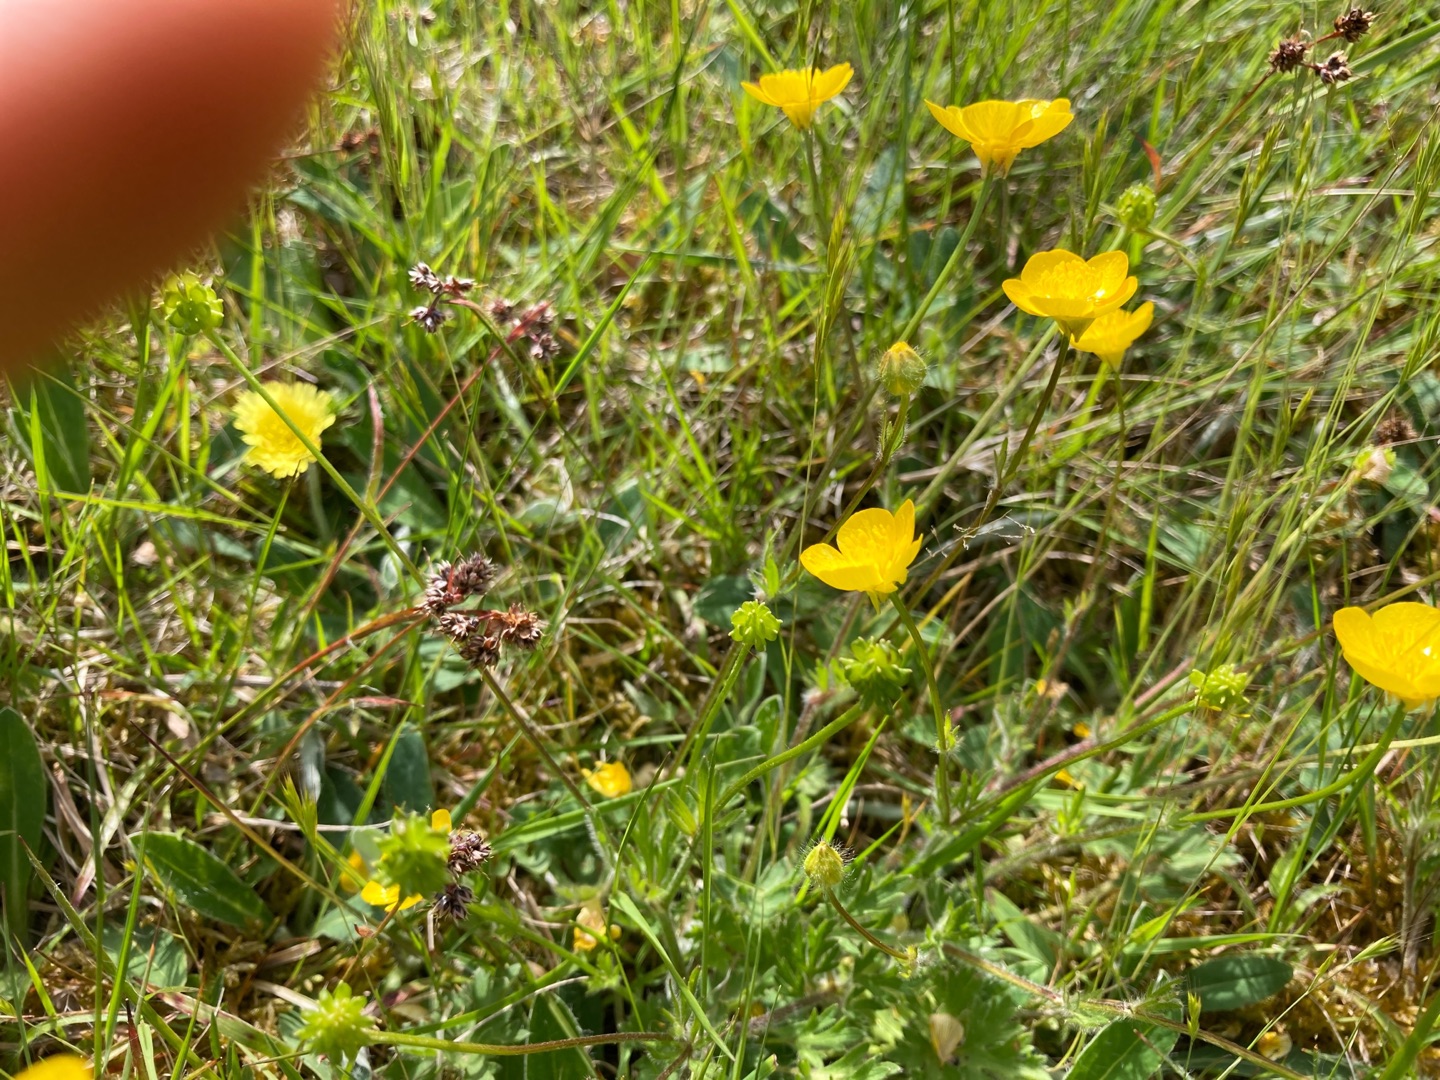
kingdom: Plantae
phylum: Tracheophyta
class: Magnoliopsida
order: Ranunculales
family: Ranunculaceae
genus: Ranunculus
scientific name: Ranunculus bulbosus
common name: Knold-ranunkel
